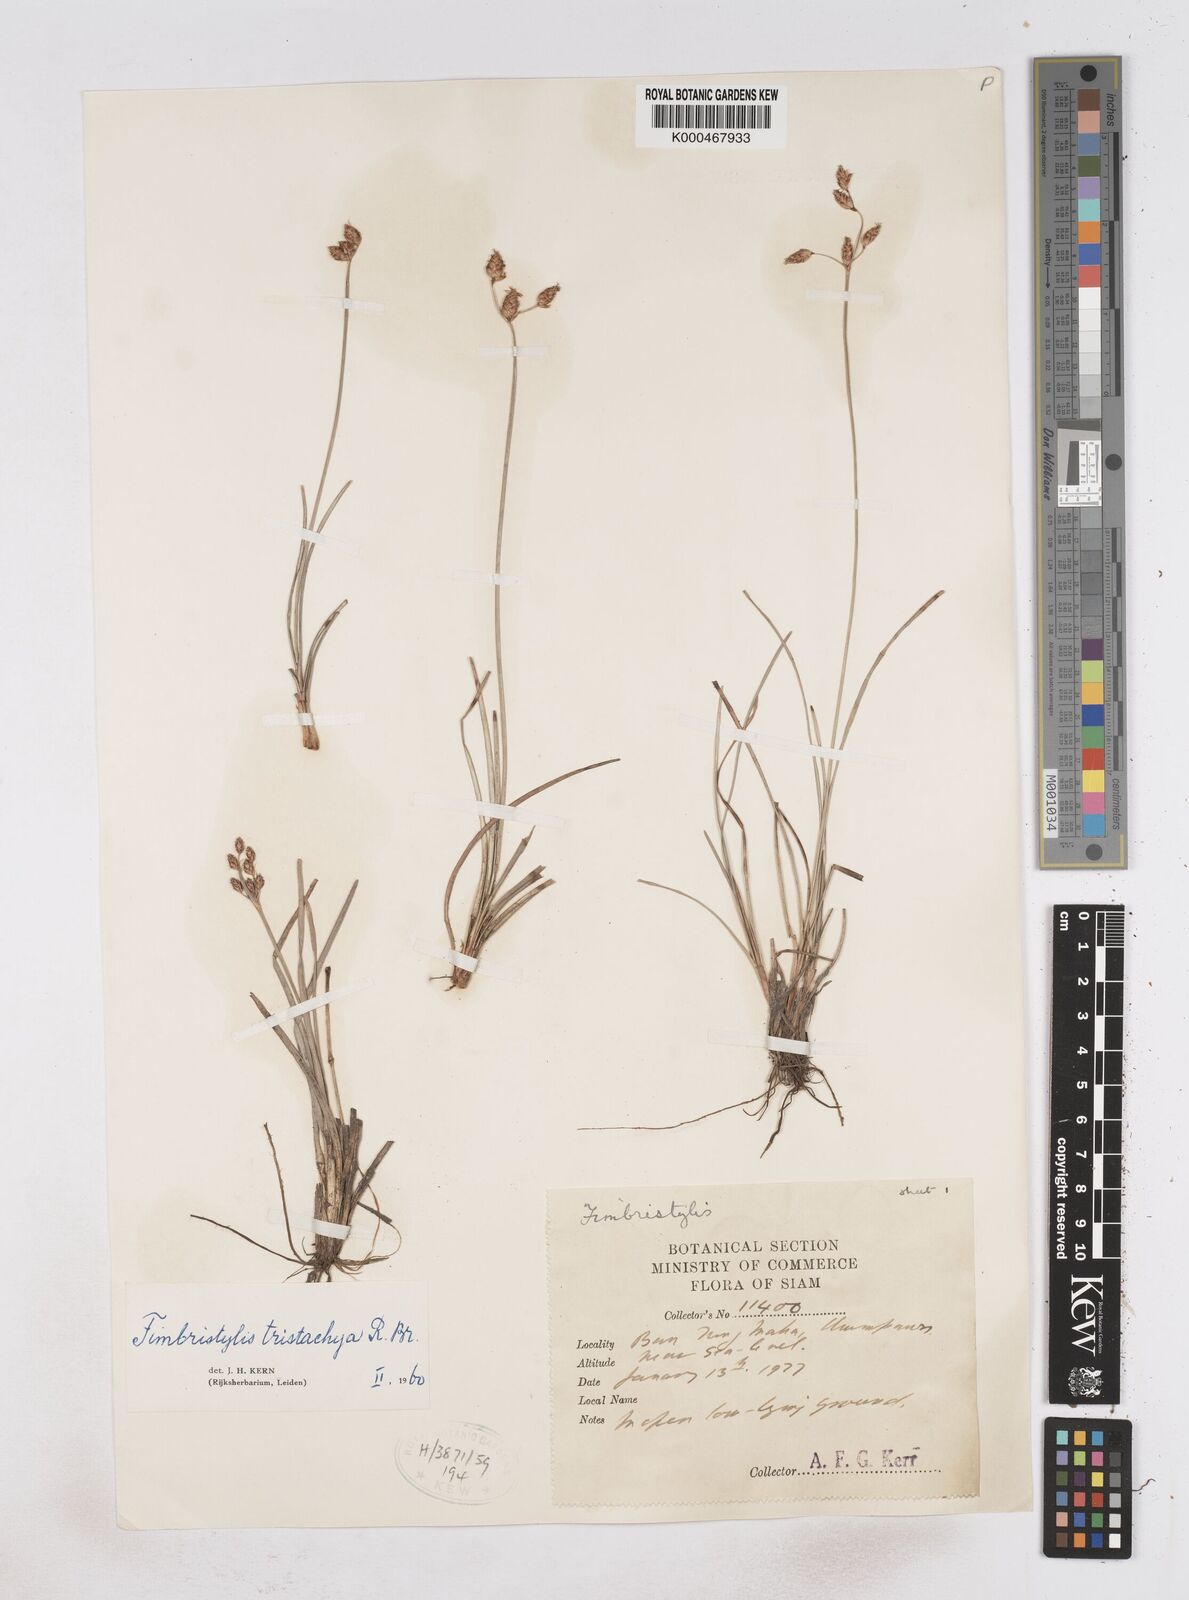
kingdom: Plantae
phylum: Tracheophyta
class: Liliopsida
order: Poales
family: Cyperaceae
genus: Fimbristylis
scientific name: Fimbristylis tristachya
